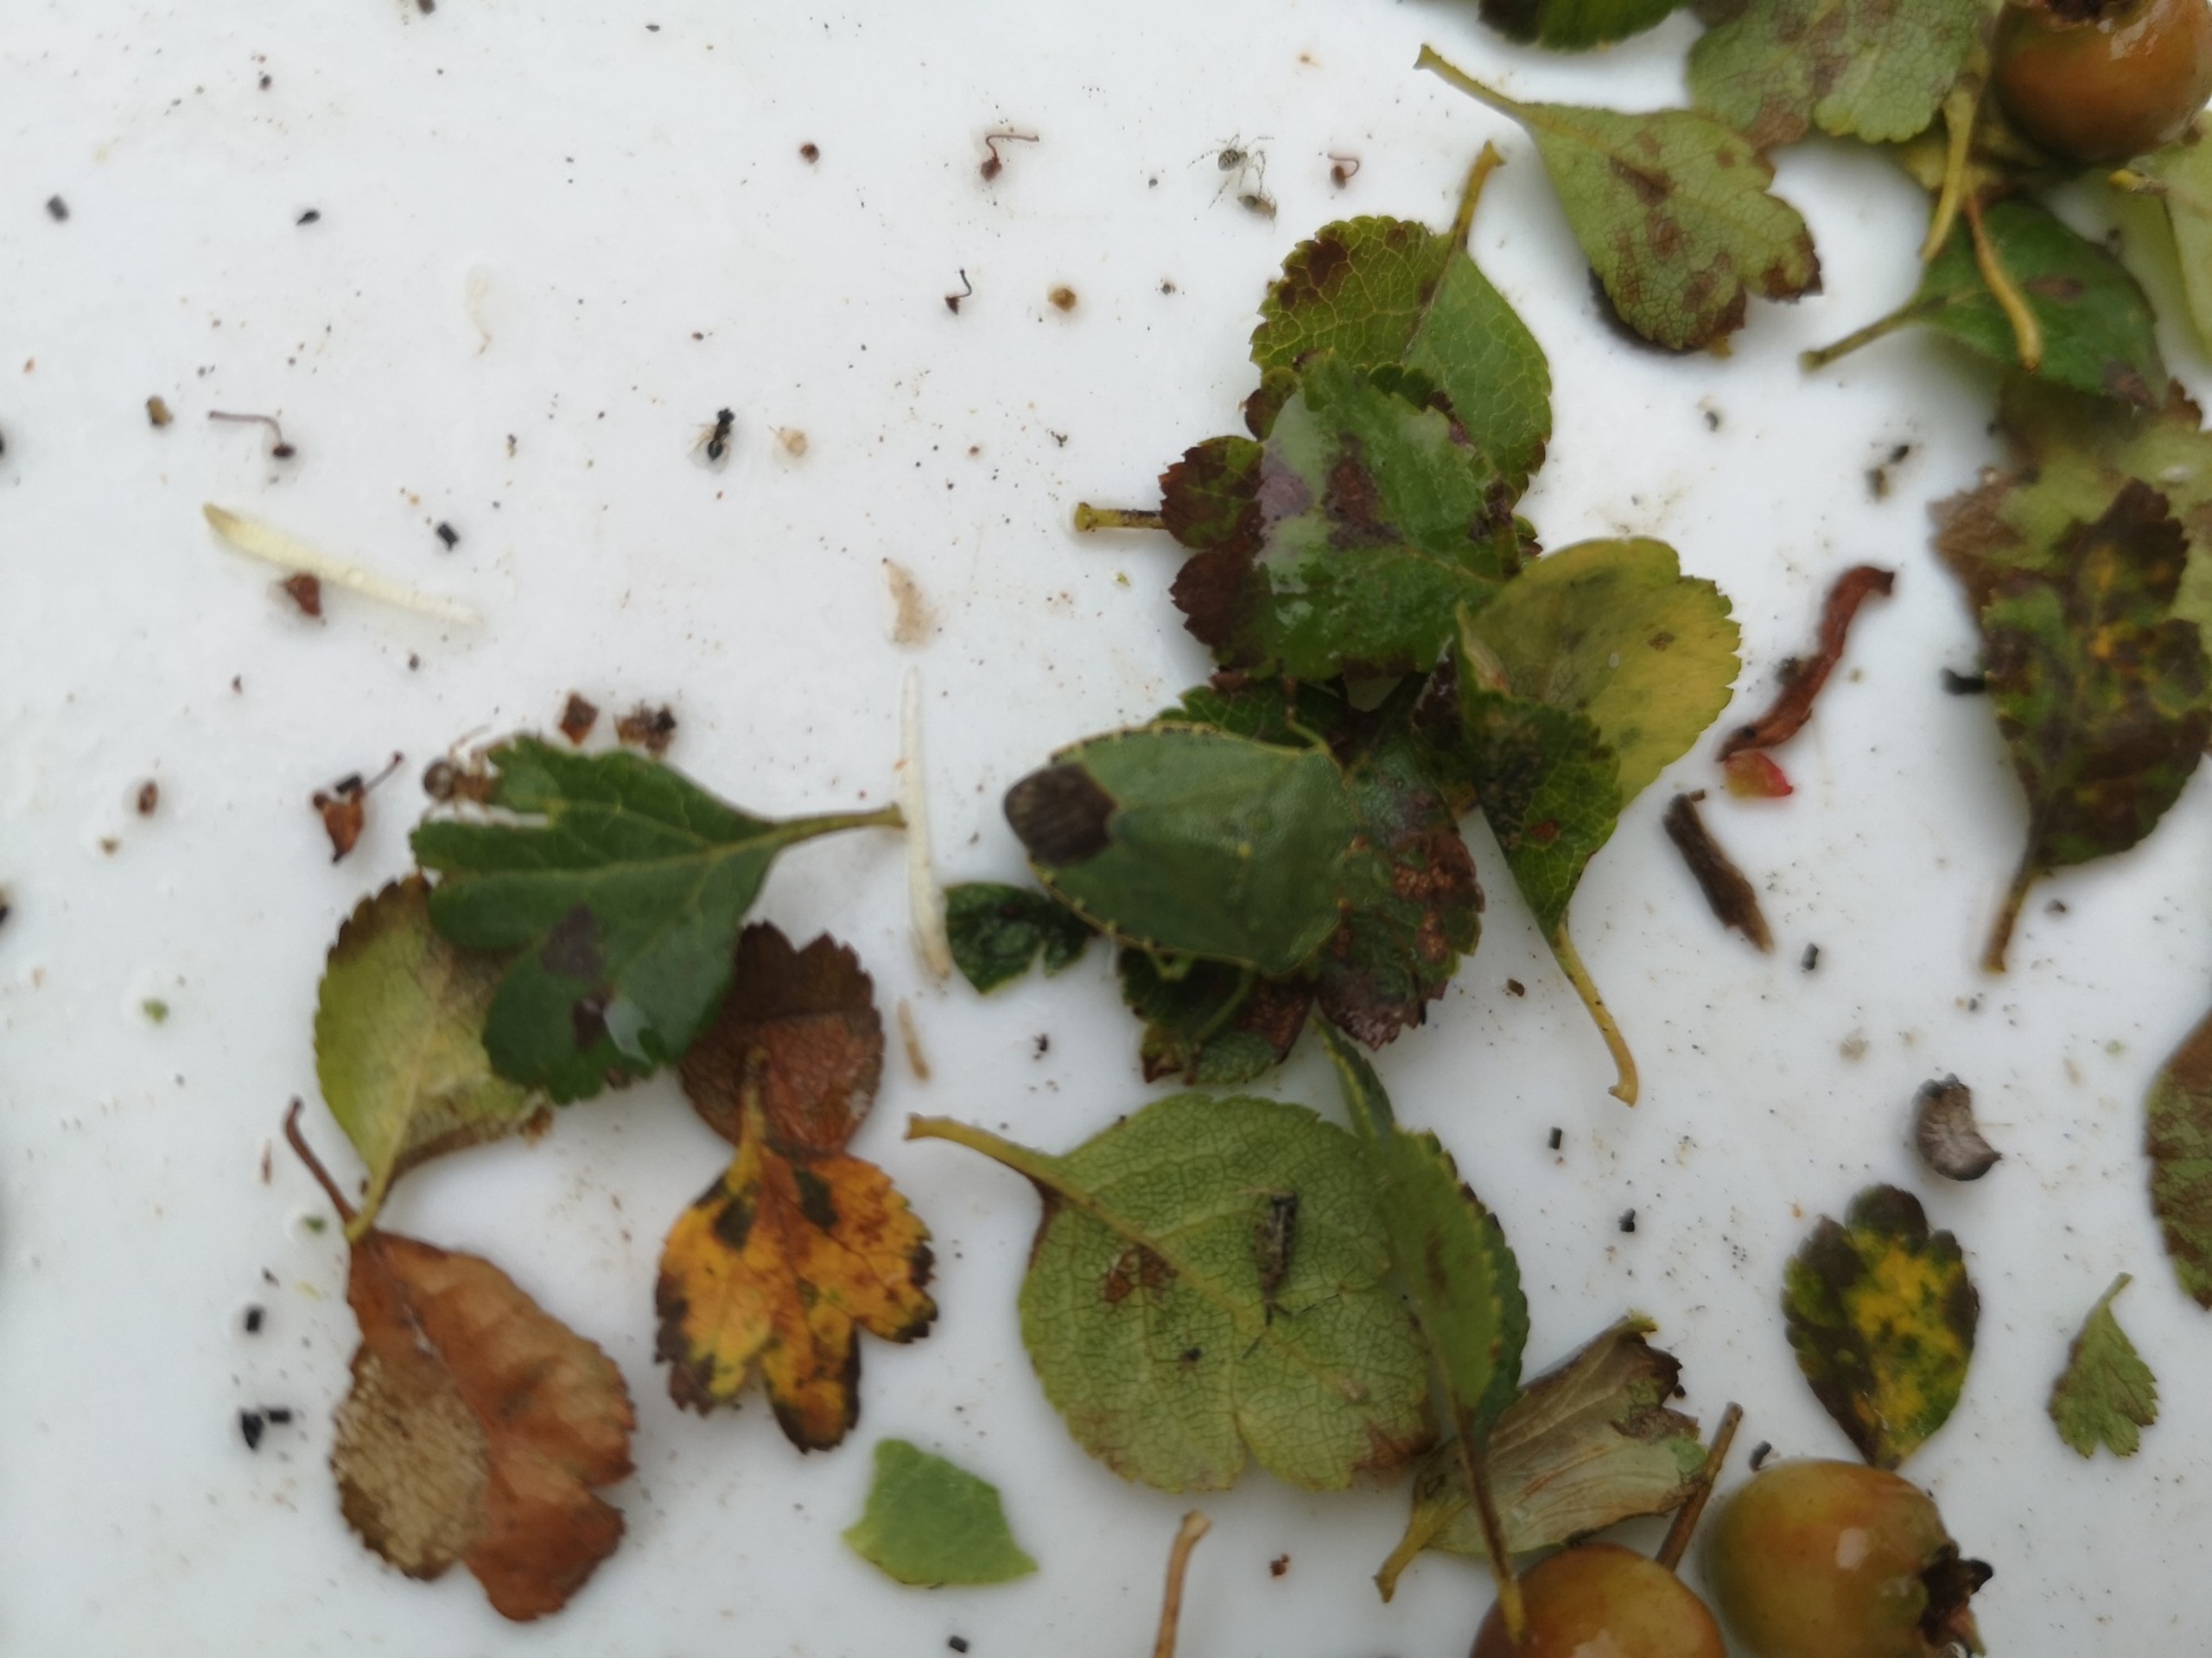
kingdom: Animalia
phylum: Arthropoda
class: Insecta
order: Hemiptera
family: Pentatomidae
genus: Palomena
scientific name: Palomena prasina
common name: Grøn bredtæge
